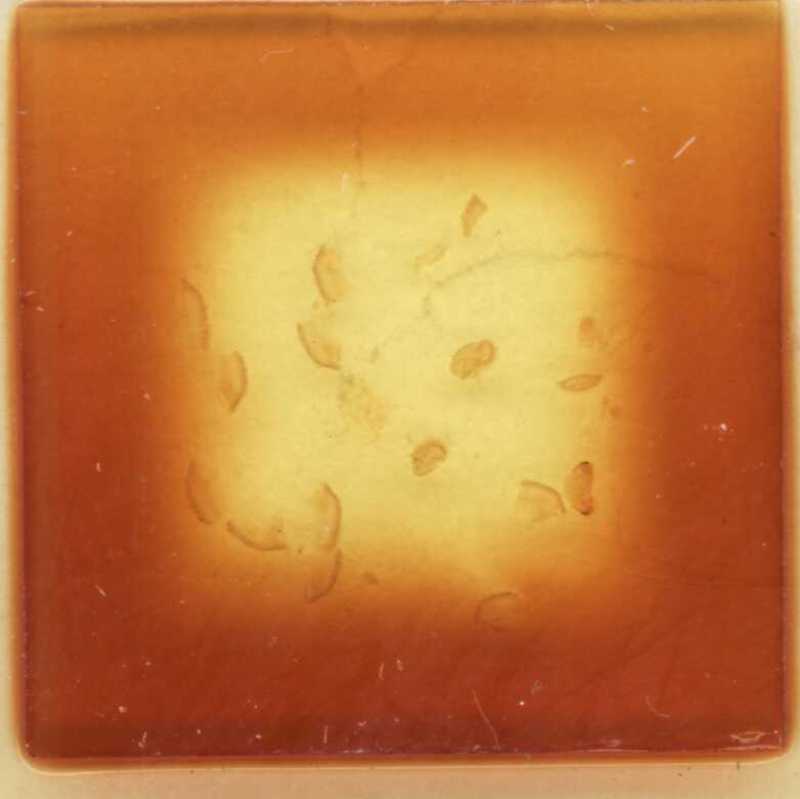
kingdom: Animalia
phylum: Arthropoda
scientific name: Arthropoda
